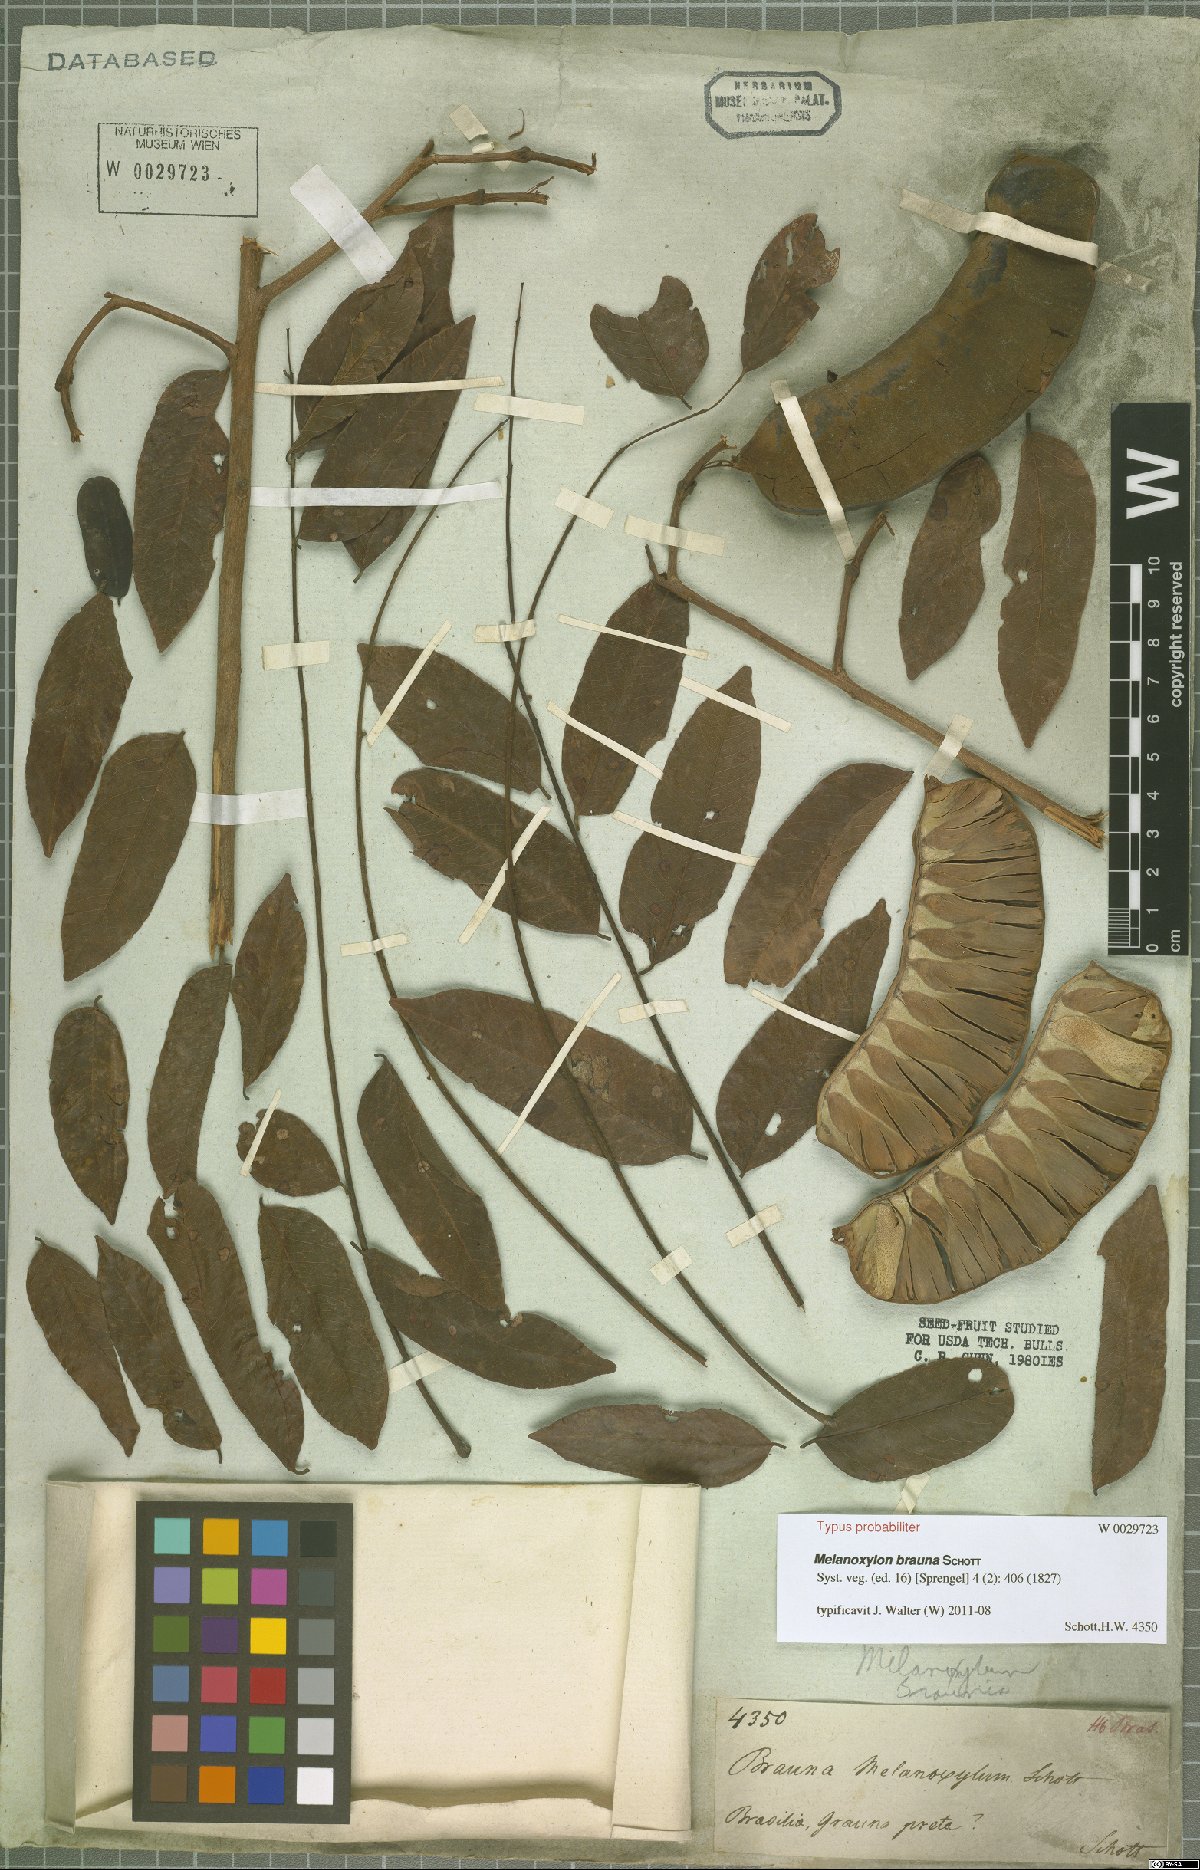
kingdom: Plantae
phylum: Tracheophyta
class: Magnoliopsida
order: Fabales
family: Fabaceae
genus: Melanoxylon
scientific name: Melanoxylon brauna
